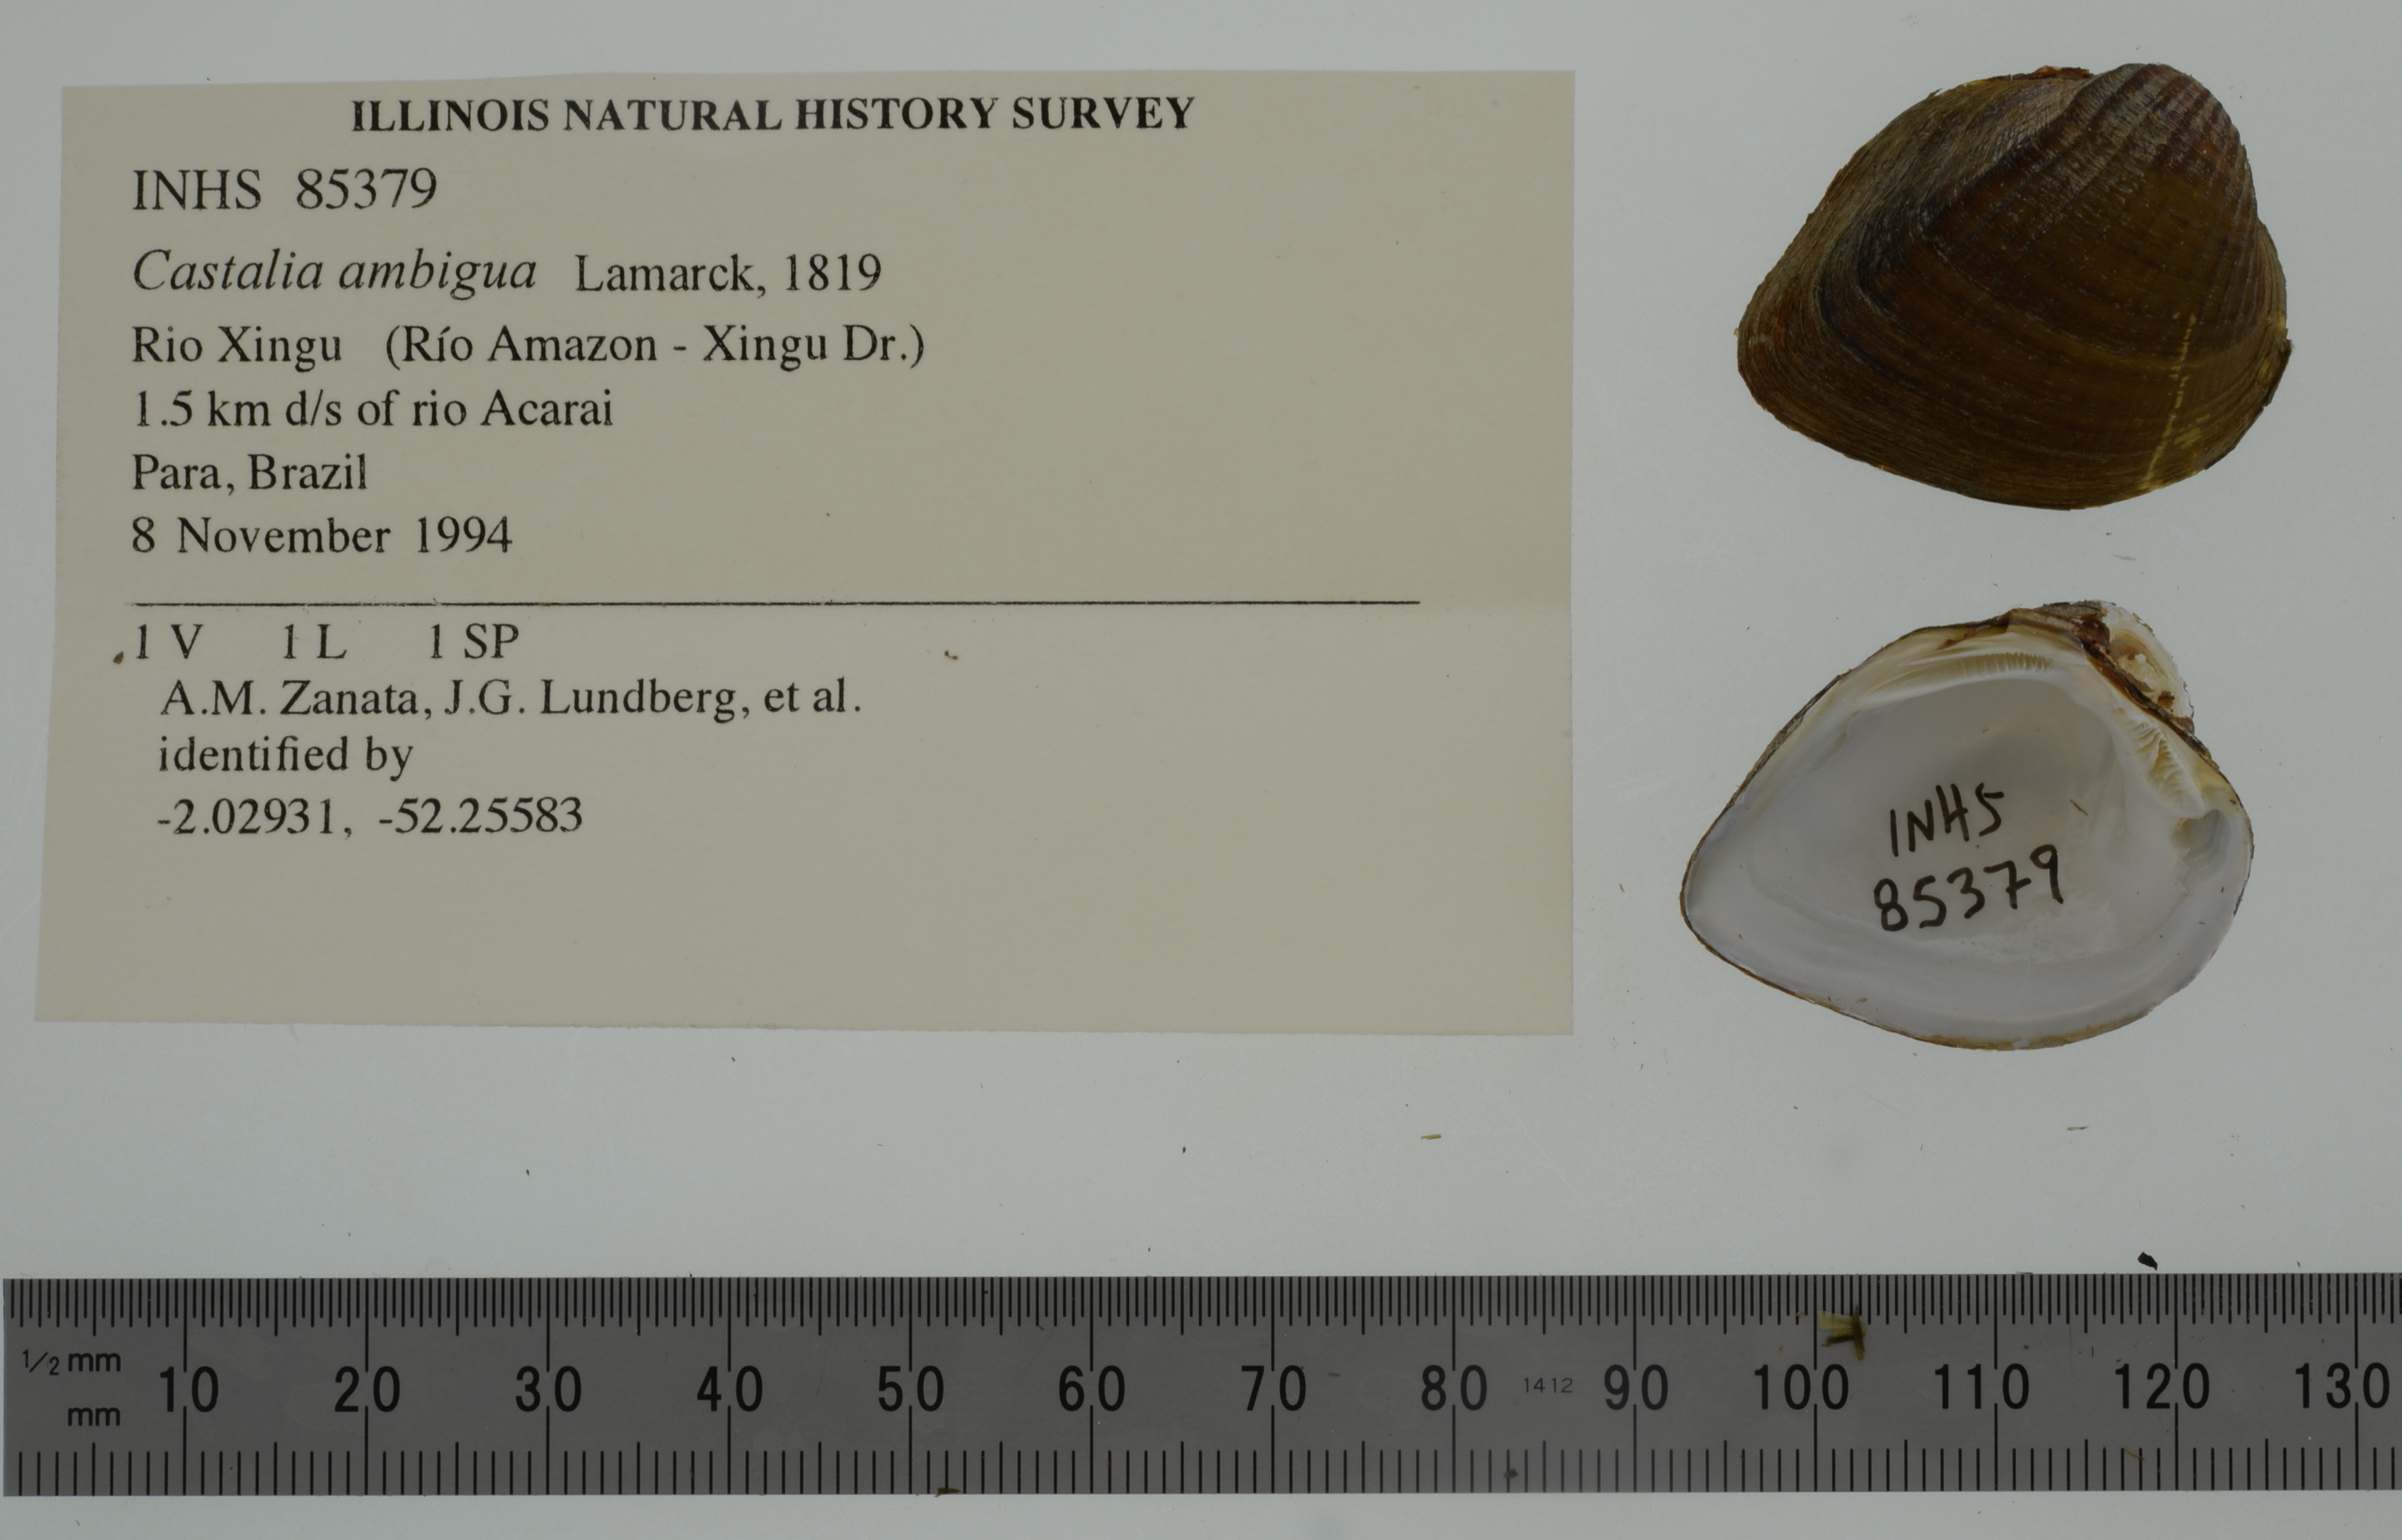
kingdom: Animalia
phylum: Mollusca
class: Bivalvia
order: Unionida
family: Hyriidae
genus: Castalia
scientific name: Castalia ambigua
